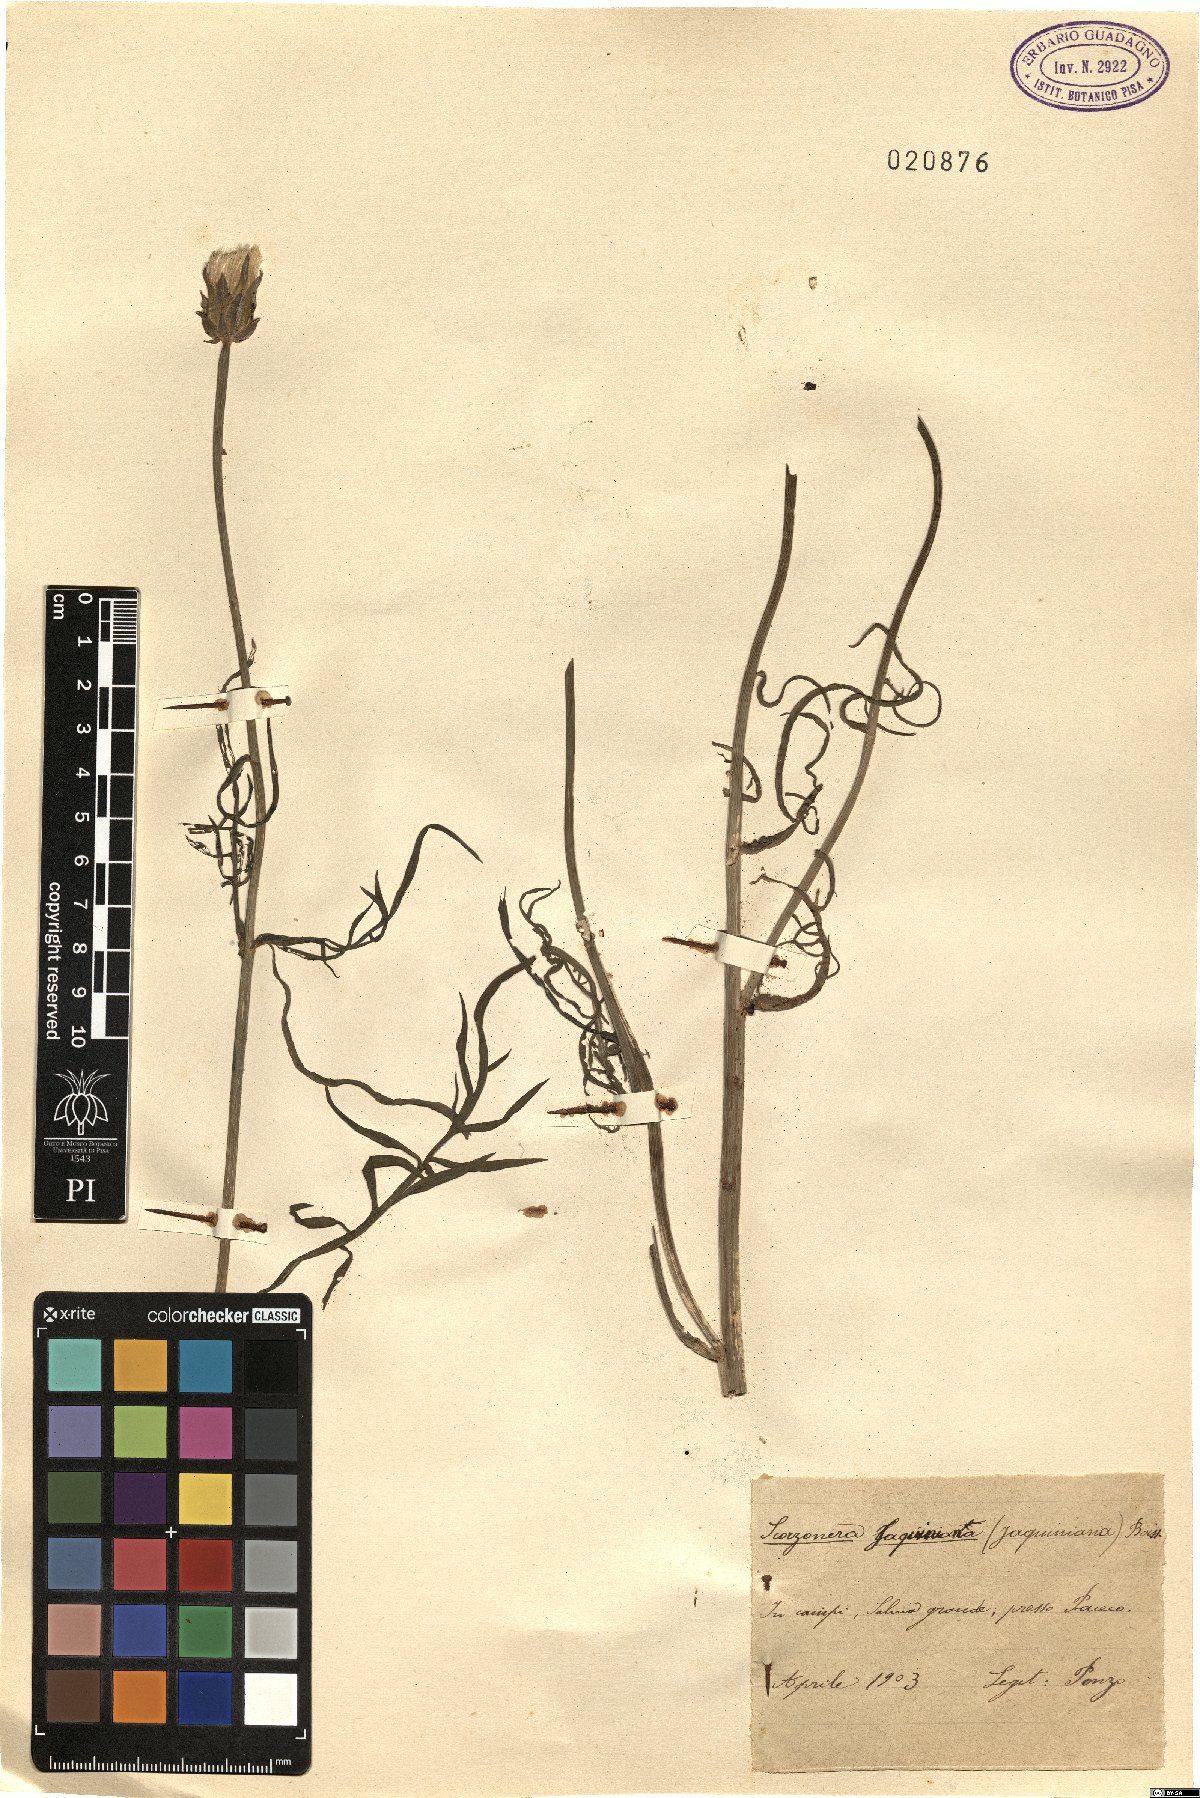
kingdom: Plantae
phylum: Tracheophyta
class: Magnoliopsida
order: Asterales
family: Asteraceae
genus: Scorzonera
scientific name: Scorzonera cana
